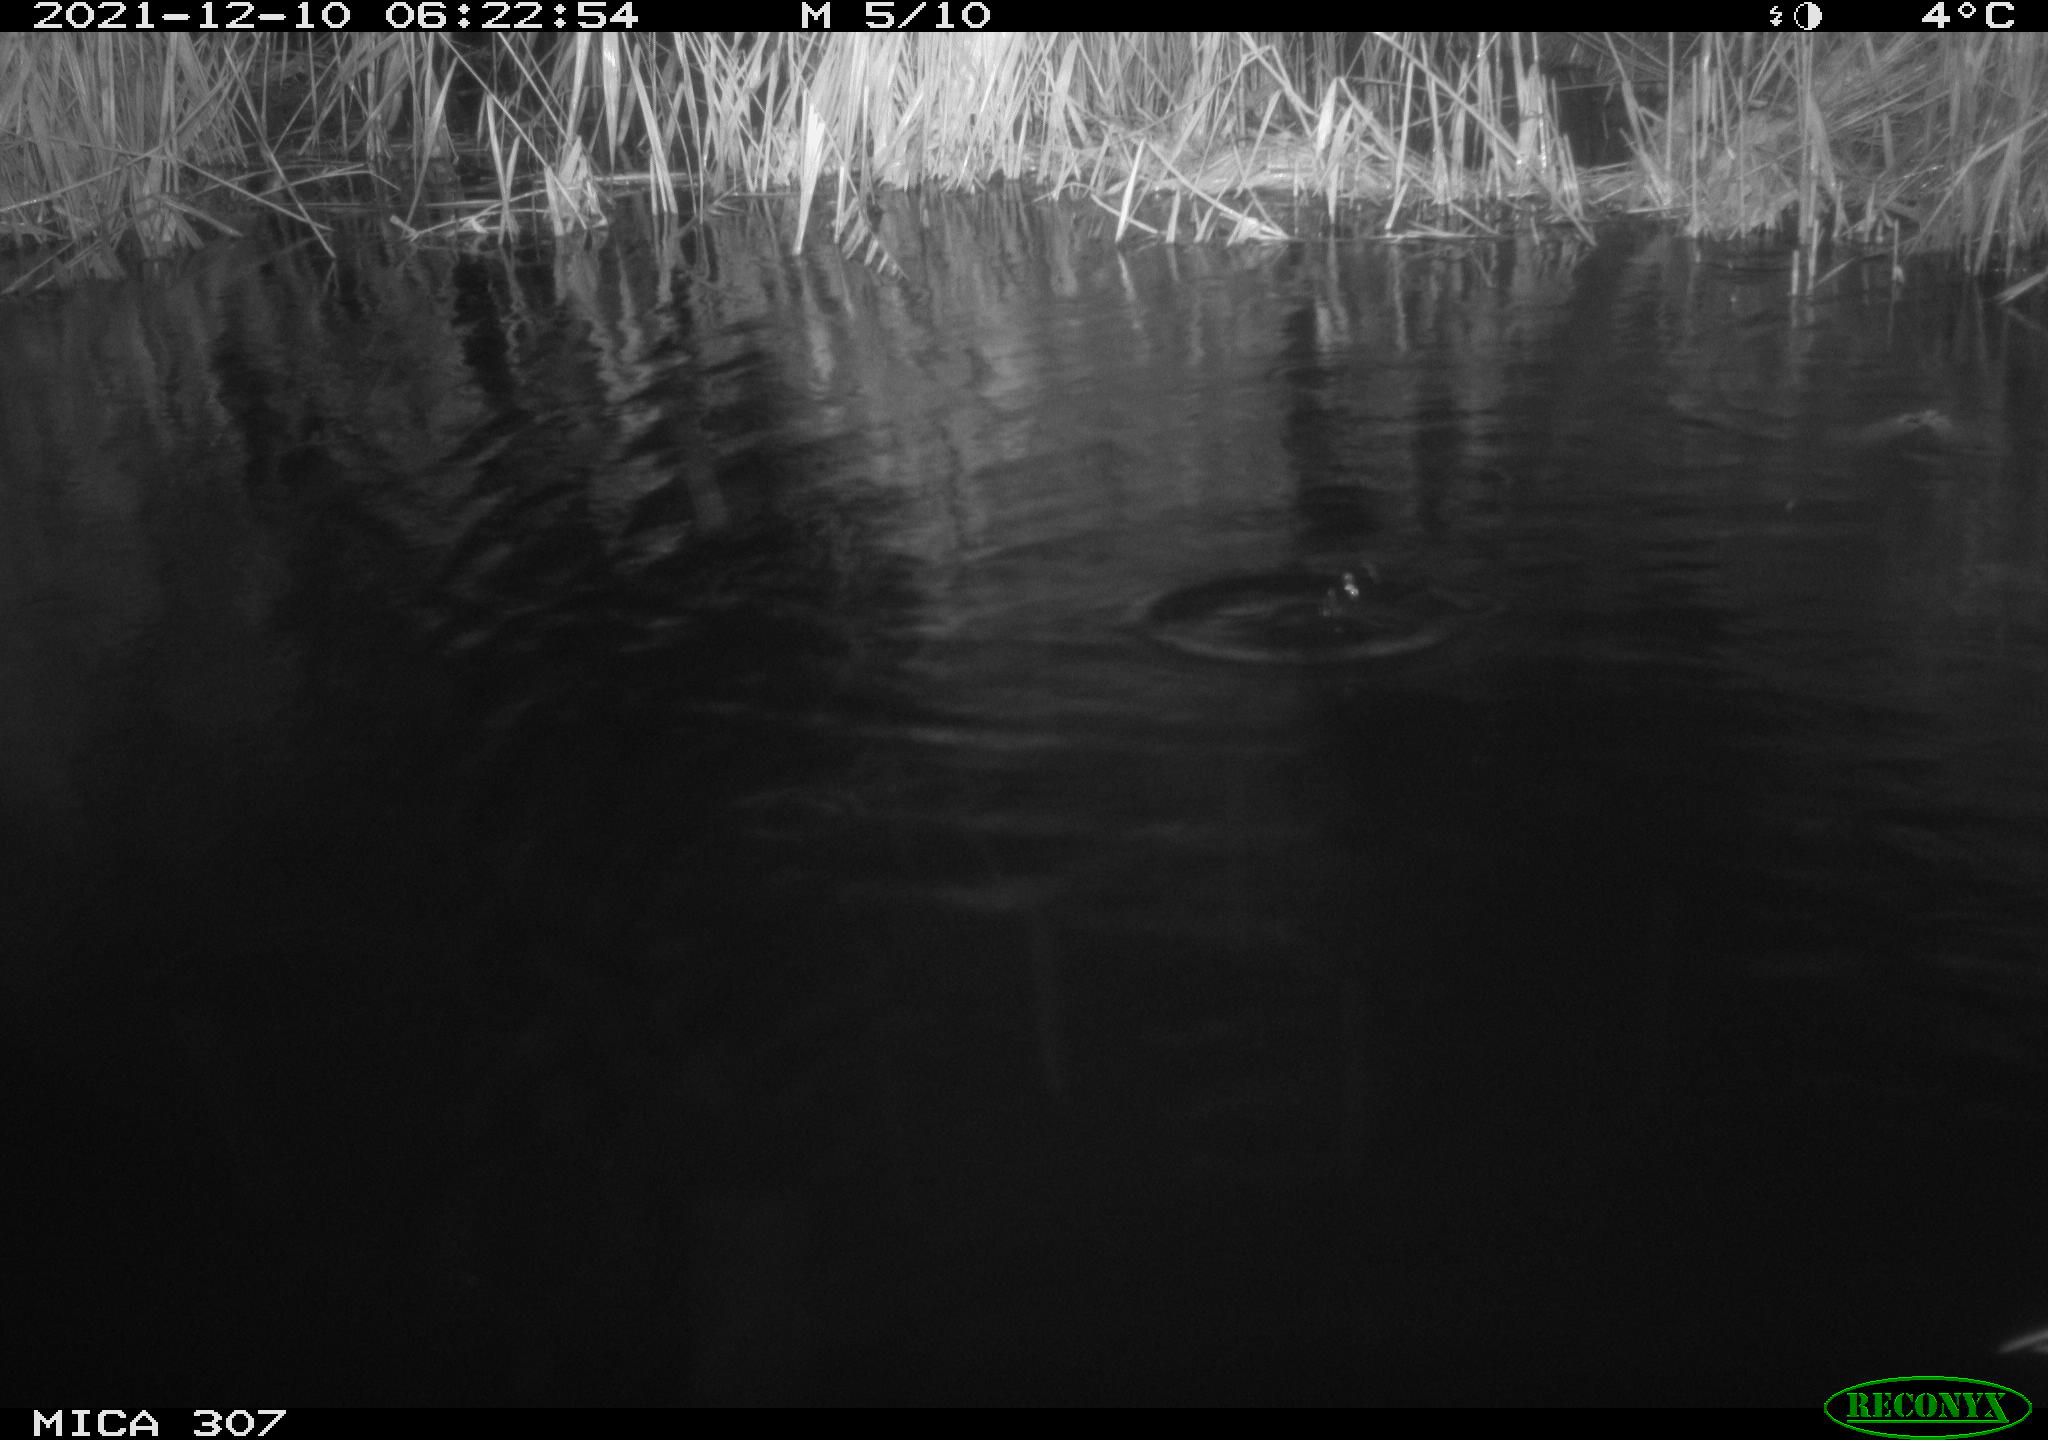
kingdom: Animalia
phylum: Chordata
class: Mammalia
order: Rodentia
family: Muridae
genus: Rattus
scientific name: Rattus norvegicus
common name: Brown rat
